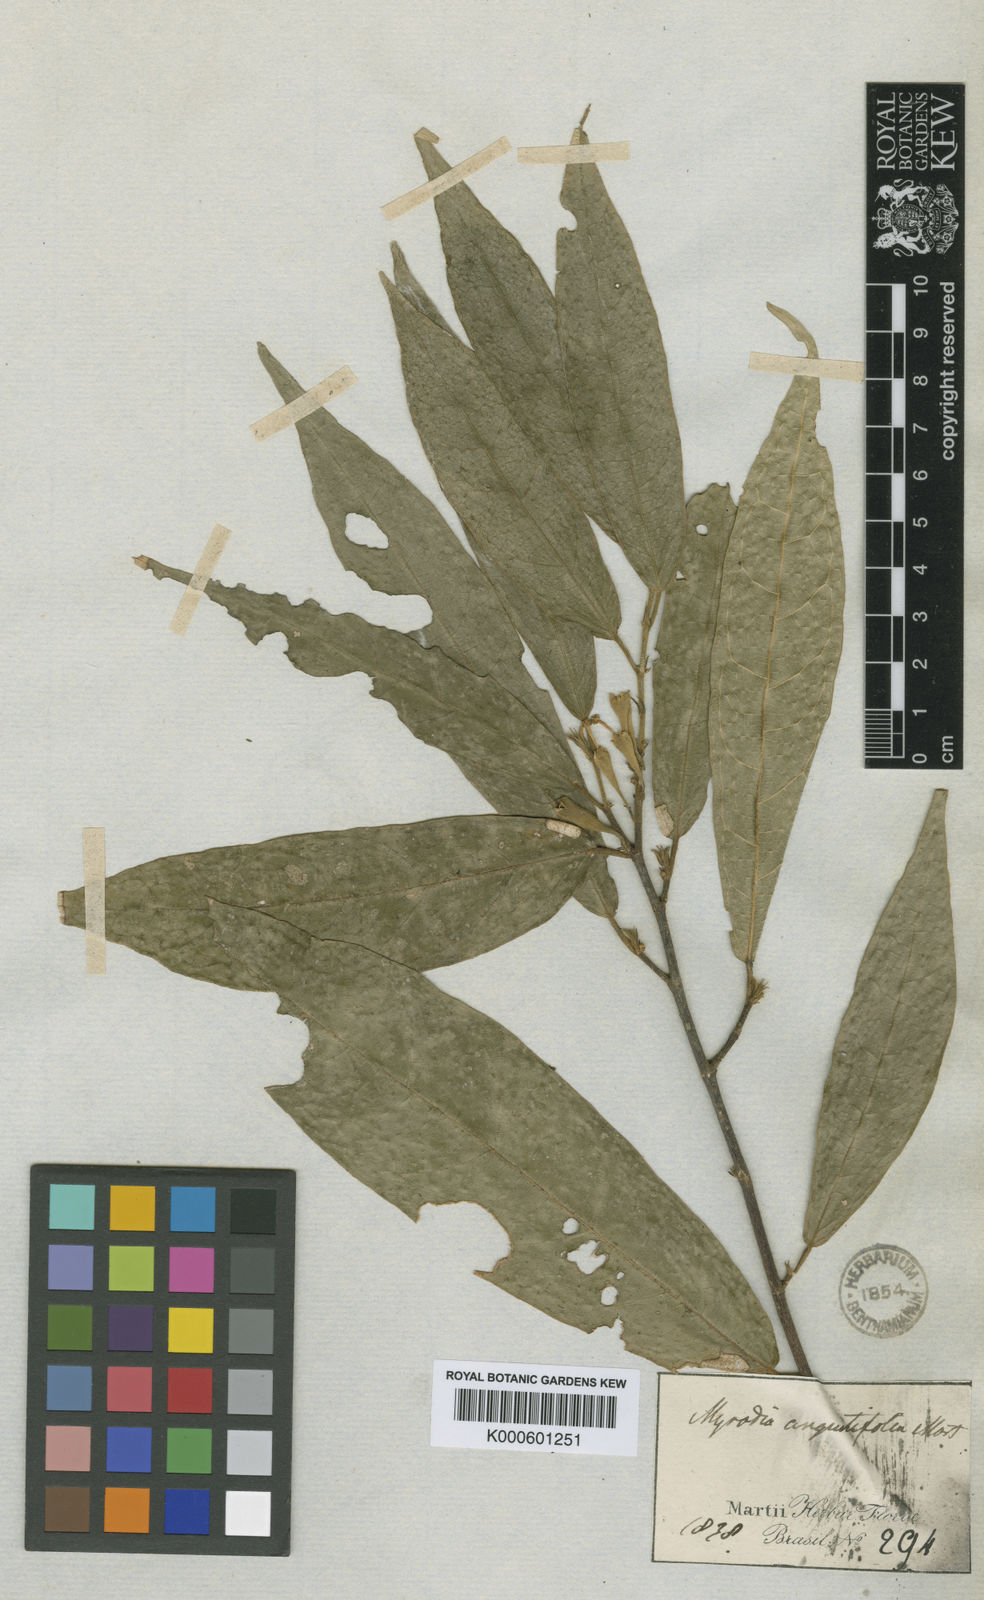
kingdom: Plantae
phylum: Tracheophyta
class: Magnoliopsida
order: Malvales
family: Malvaceae
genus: Quararibea
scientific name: Quararibea angustifolia
